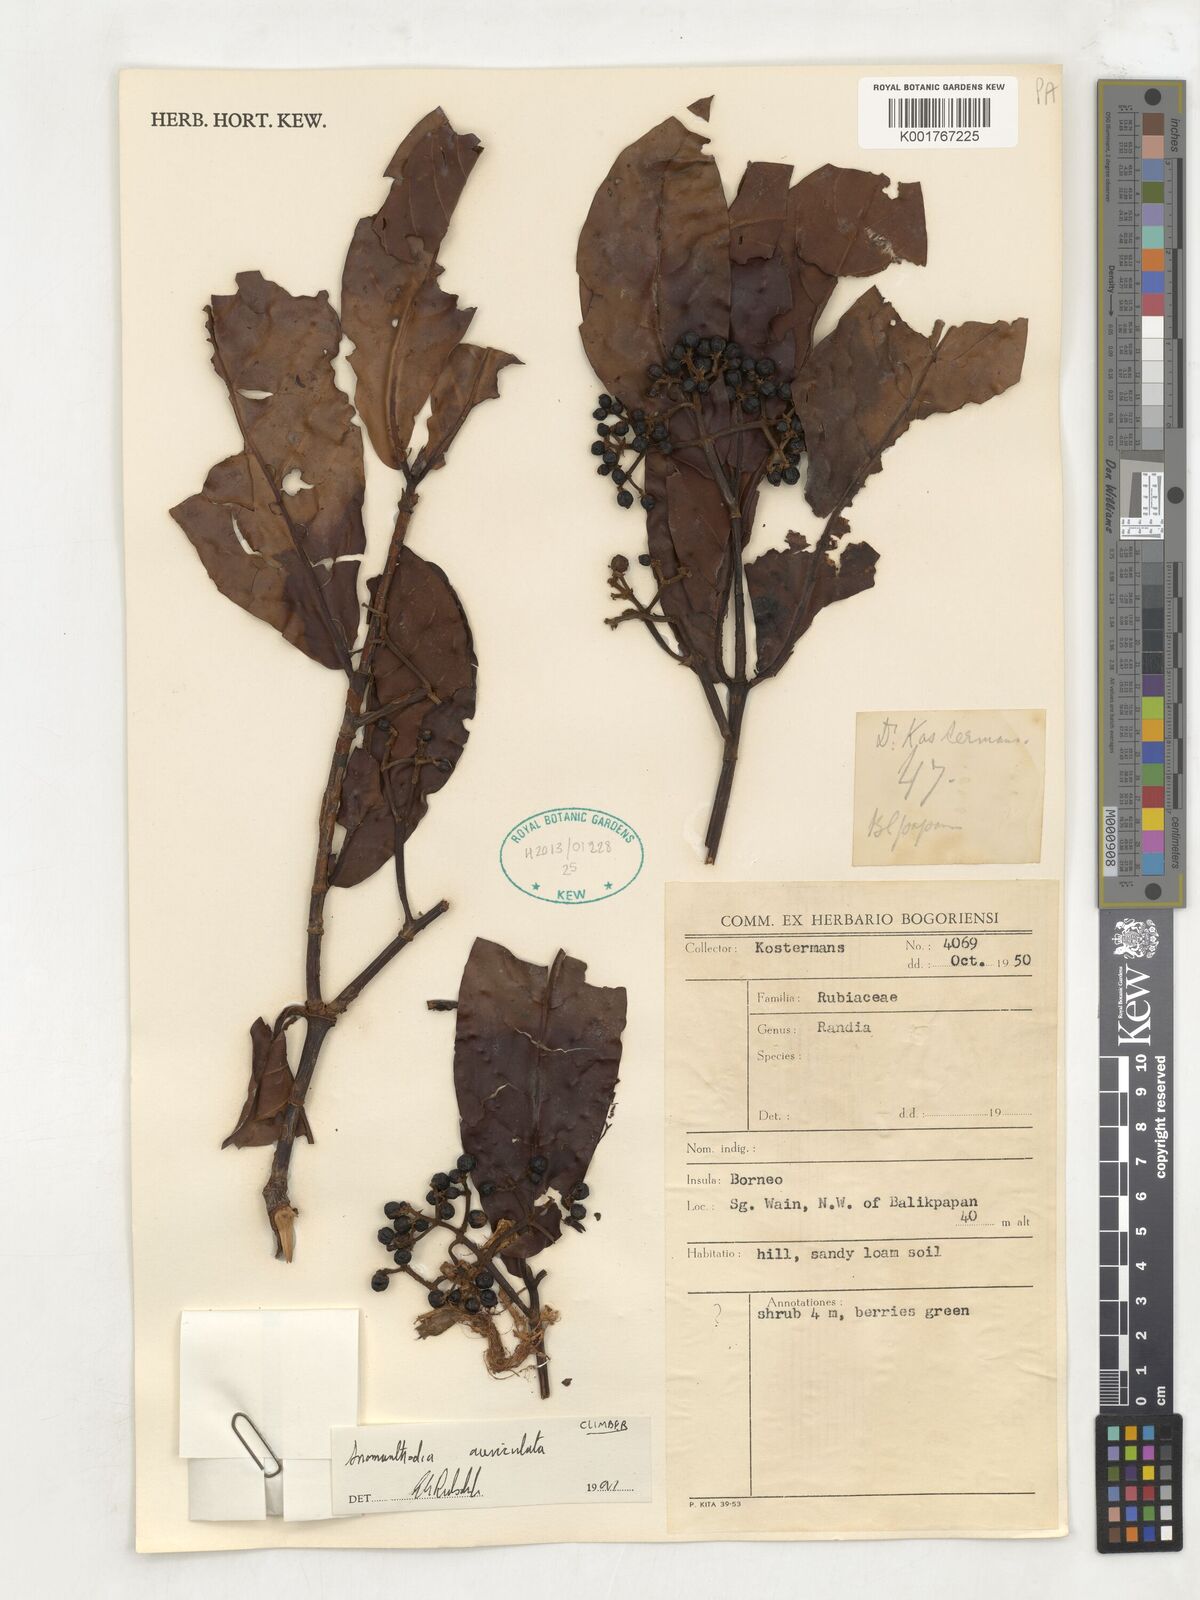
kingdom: Plantae
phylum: Tracheophyta
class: Magnoliopsida
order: Gentianales
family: Rubiaceae
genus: Aidia
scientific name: Aidia auriculata
